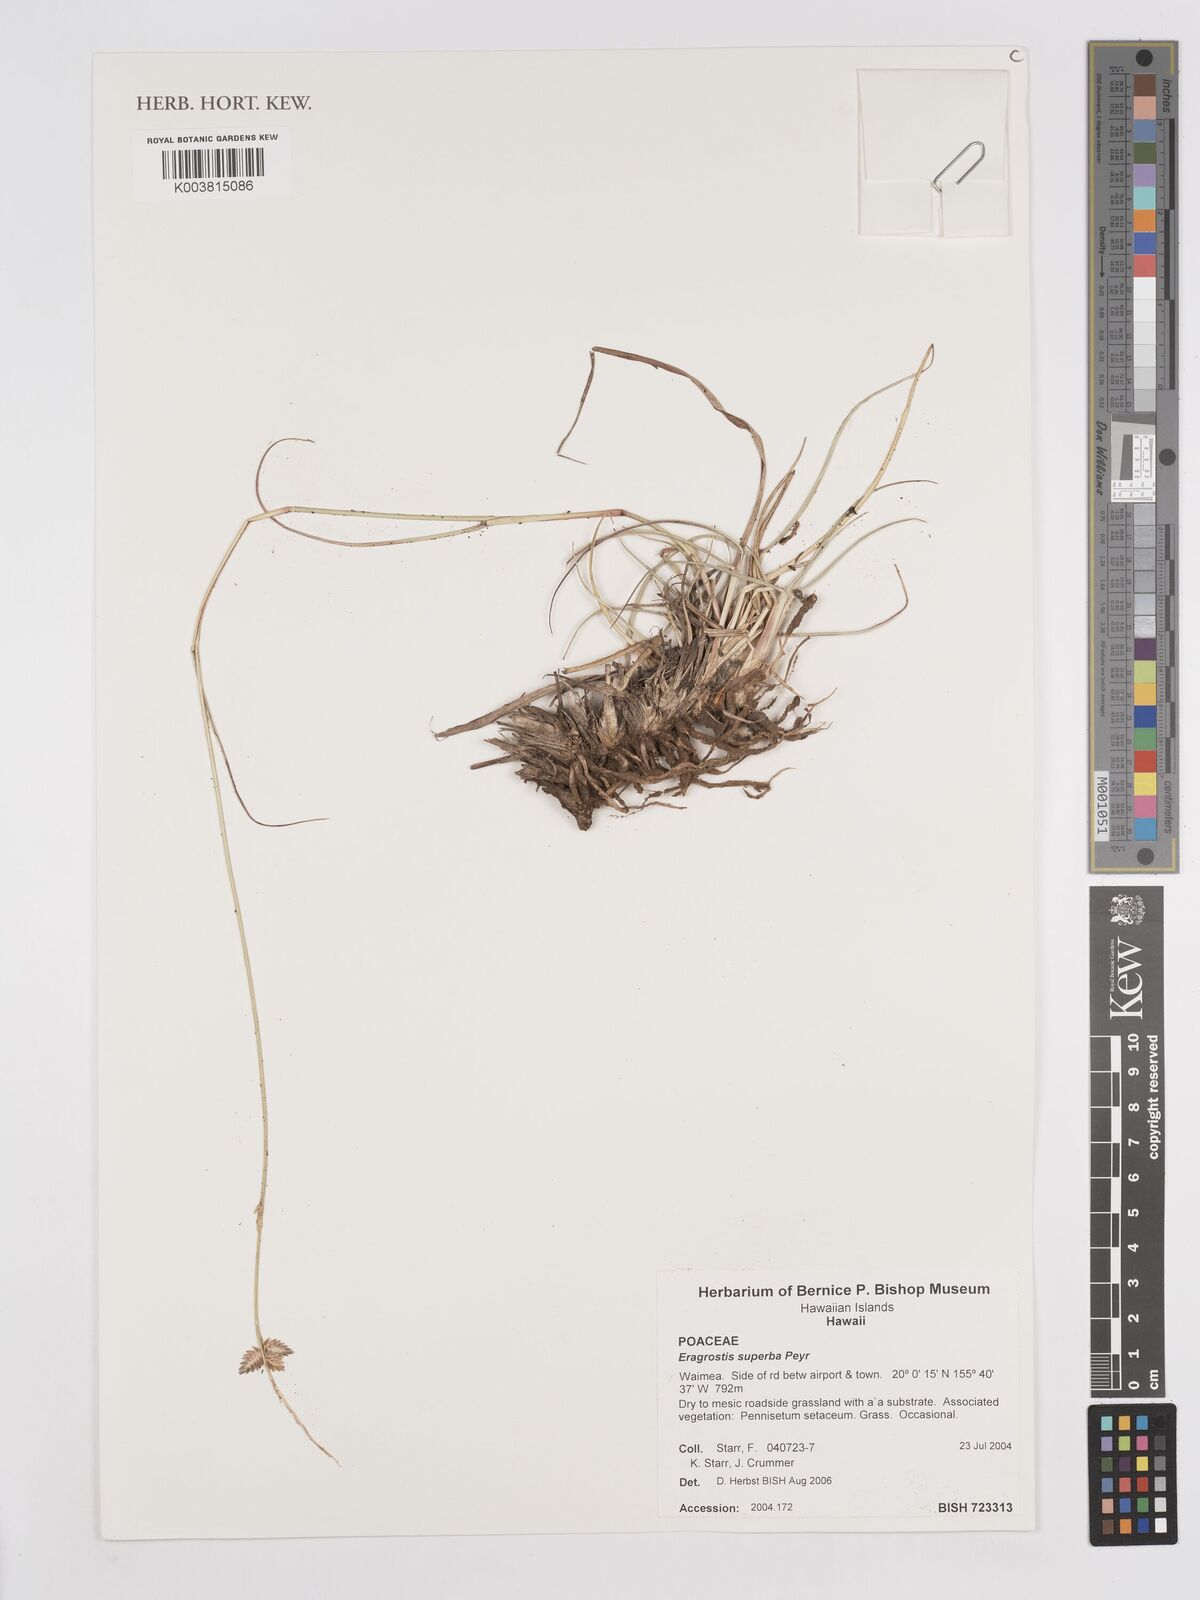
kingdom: Plantae
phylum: Tracheophyta
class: Liliopsida
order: Poales
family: Poaceae
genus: Eragrostis
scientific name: Eragrostis superba
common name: Wilman lovegrass
